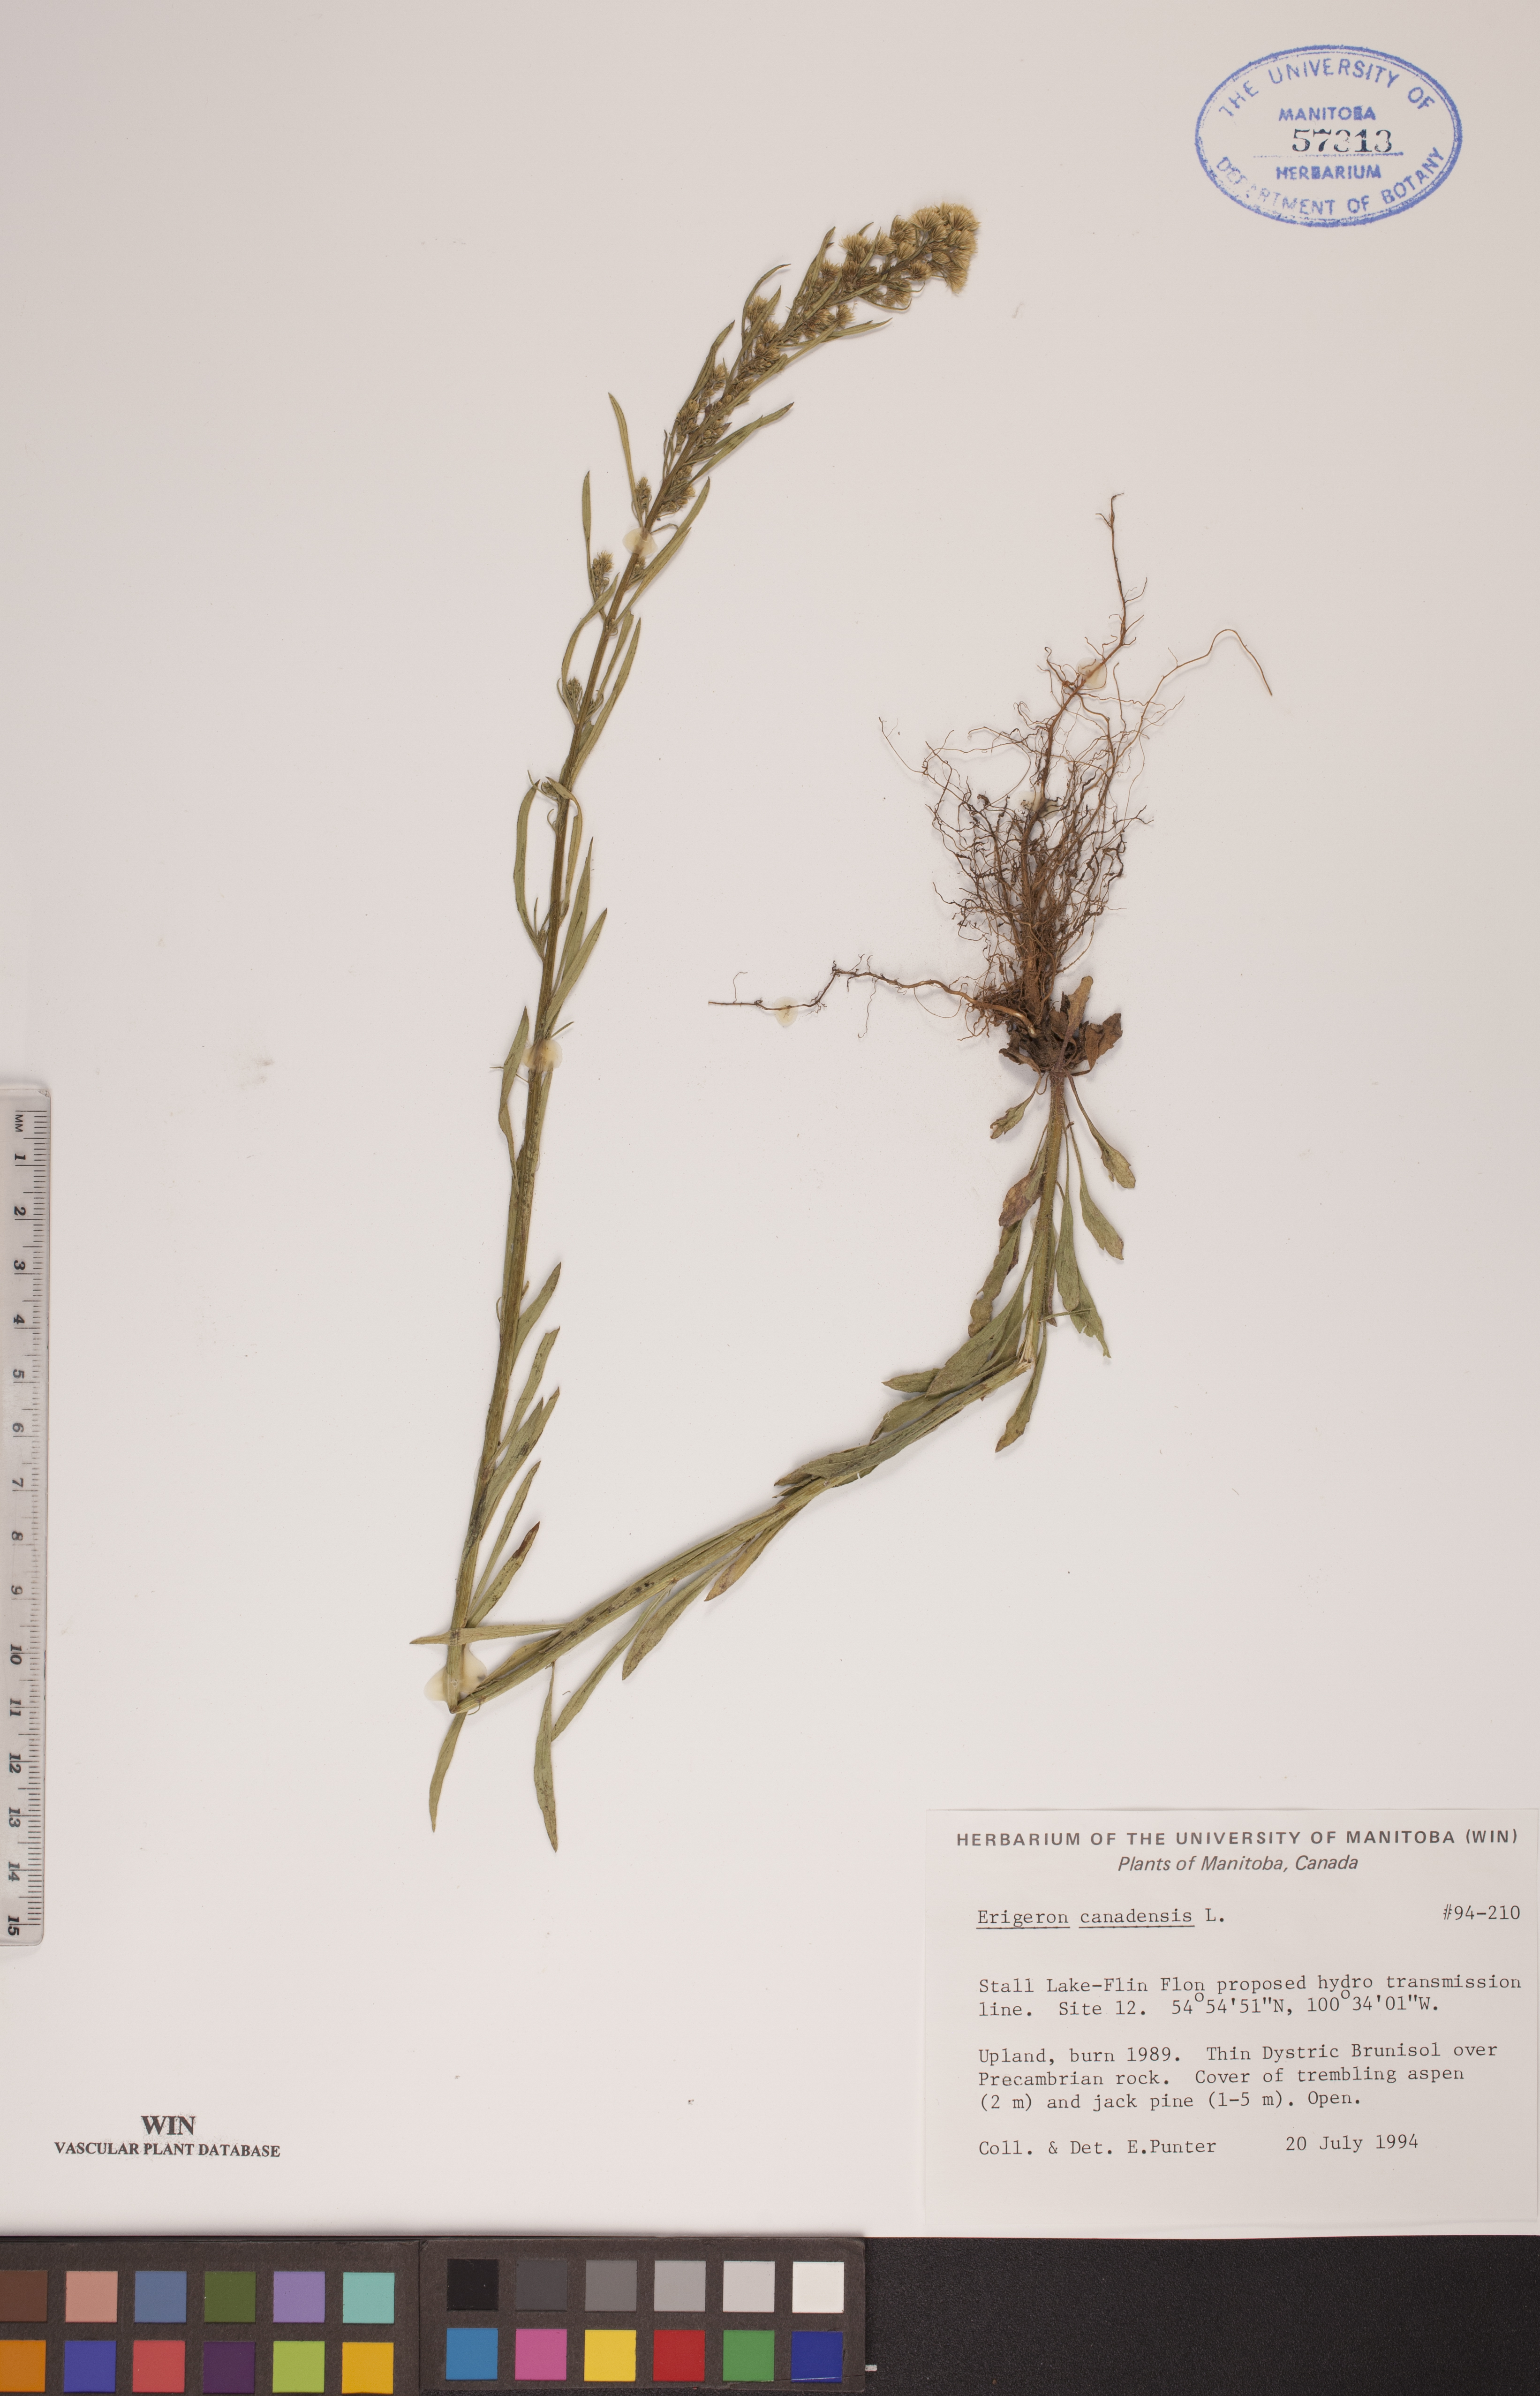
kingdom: Plantae
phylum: Tracheophyta
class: Magnoliopsida
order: Asterales
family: Asteraceae
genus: Erigeron
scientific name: Erigeron canadensis
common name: Canadian fleabane
